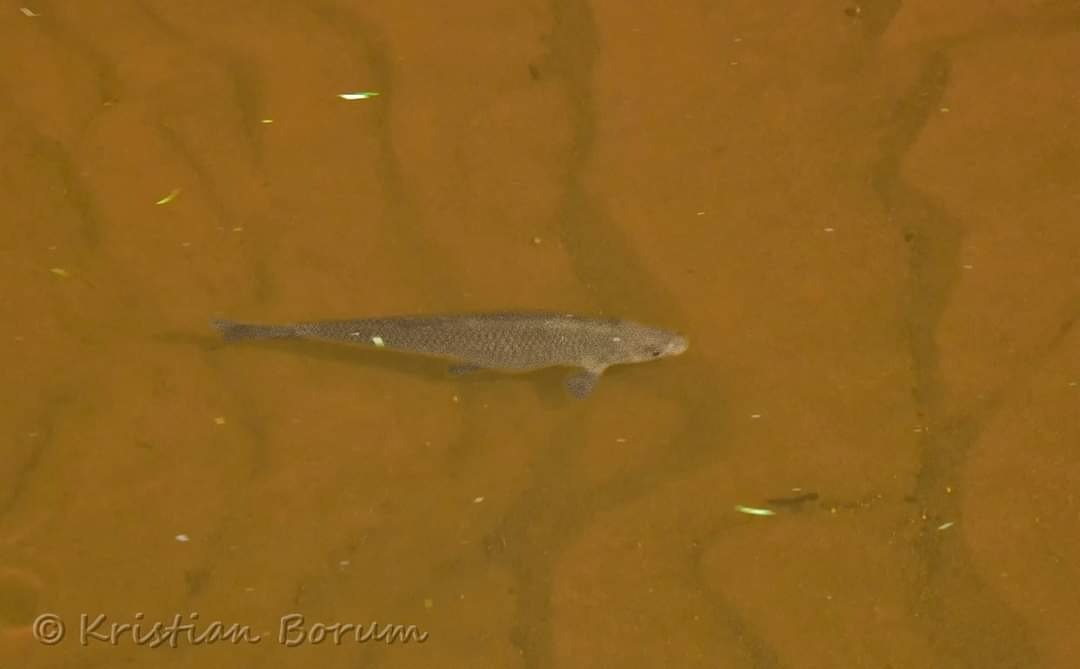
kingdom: Animalia
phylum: Chordata
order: Cypriniformes
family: Cyprinidae
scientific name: Cyprinidae
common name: Karpefamilien
